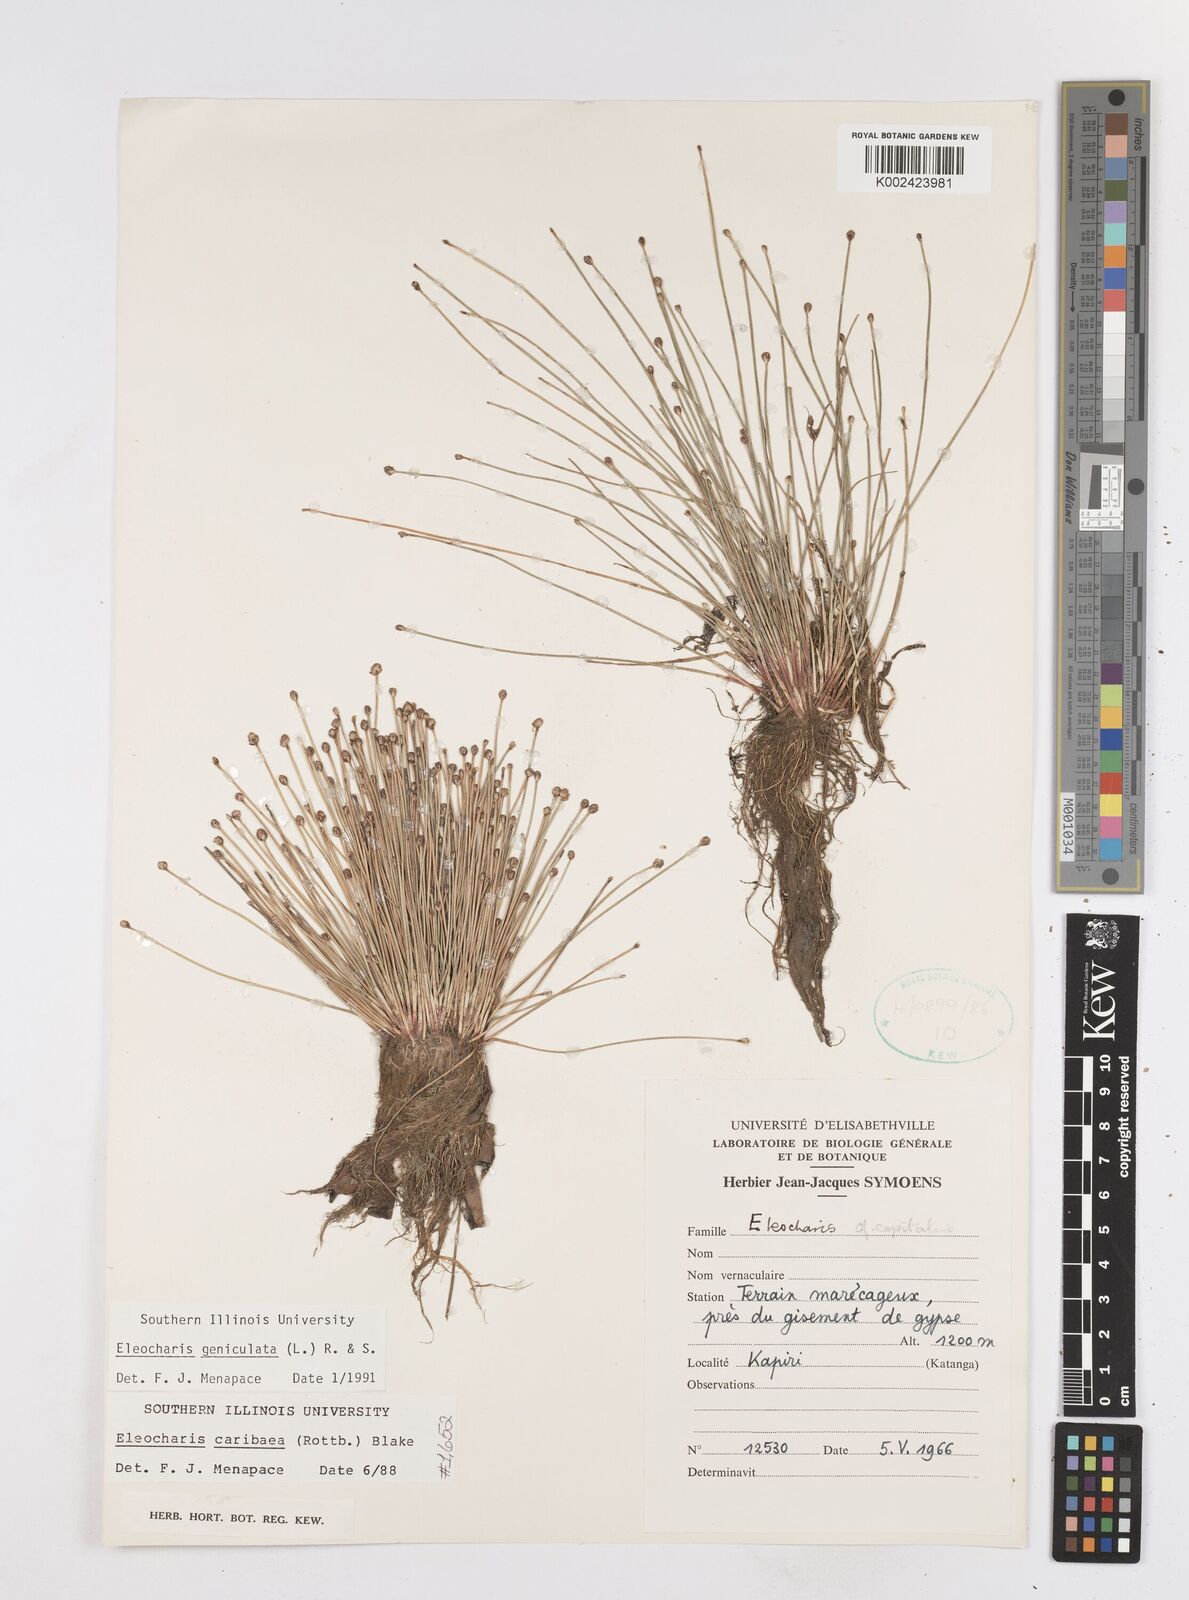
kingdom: Plantae
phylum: Tracheophyta
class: Liliopsida
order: Poales
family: Cyperaceae
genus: Eleocharis
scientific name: Eleocharis geniculata
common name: Canada spikesedge
